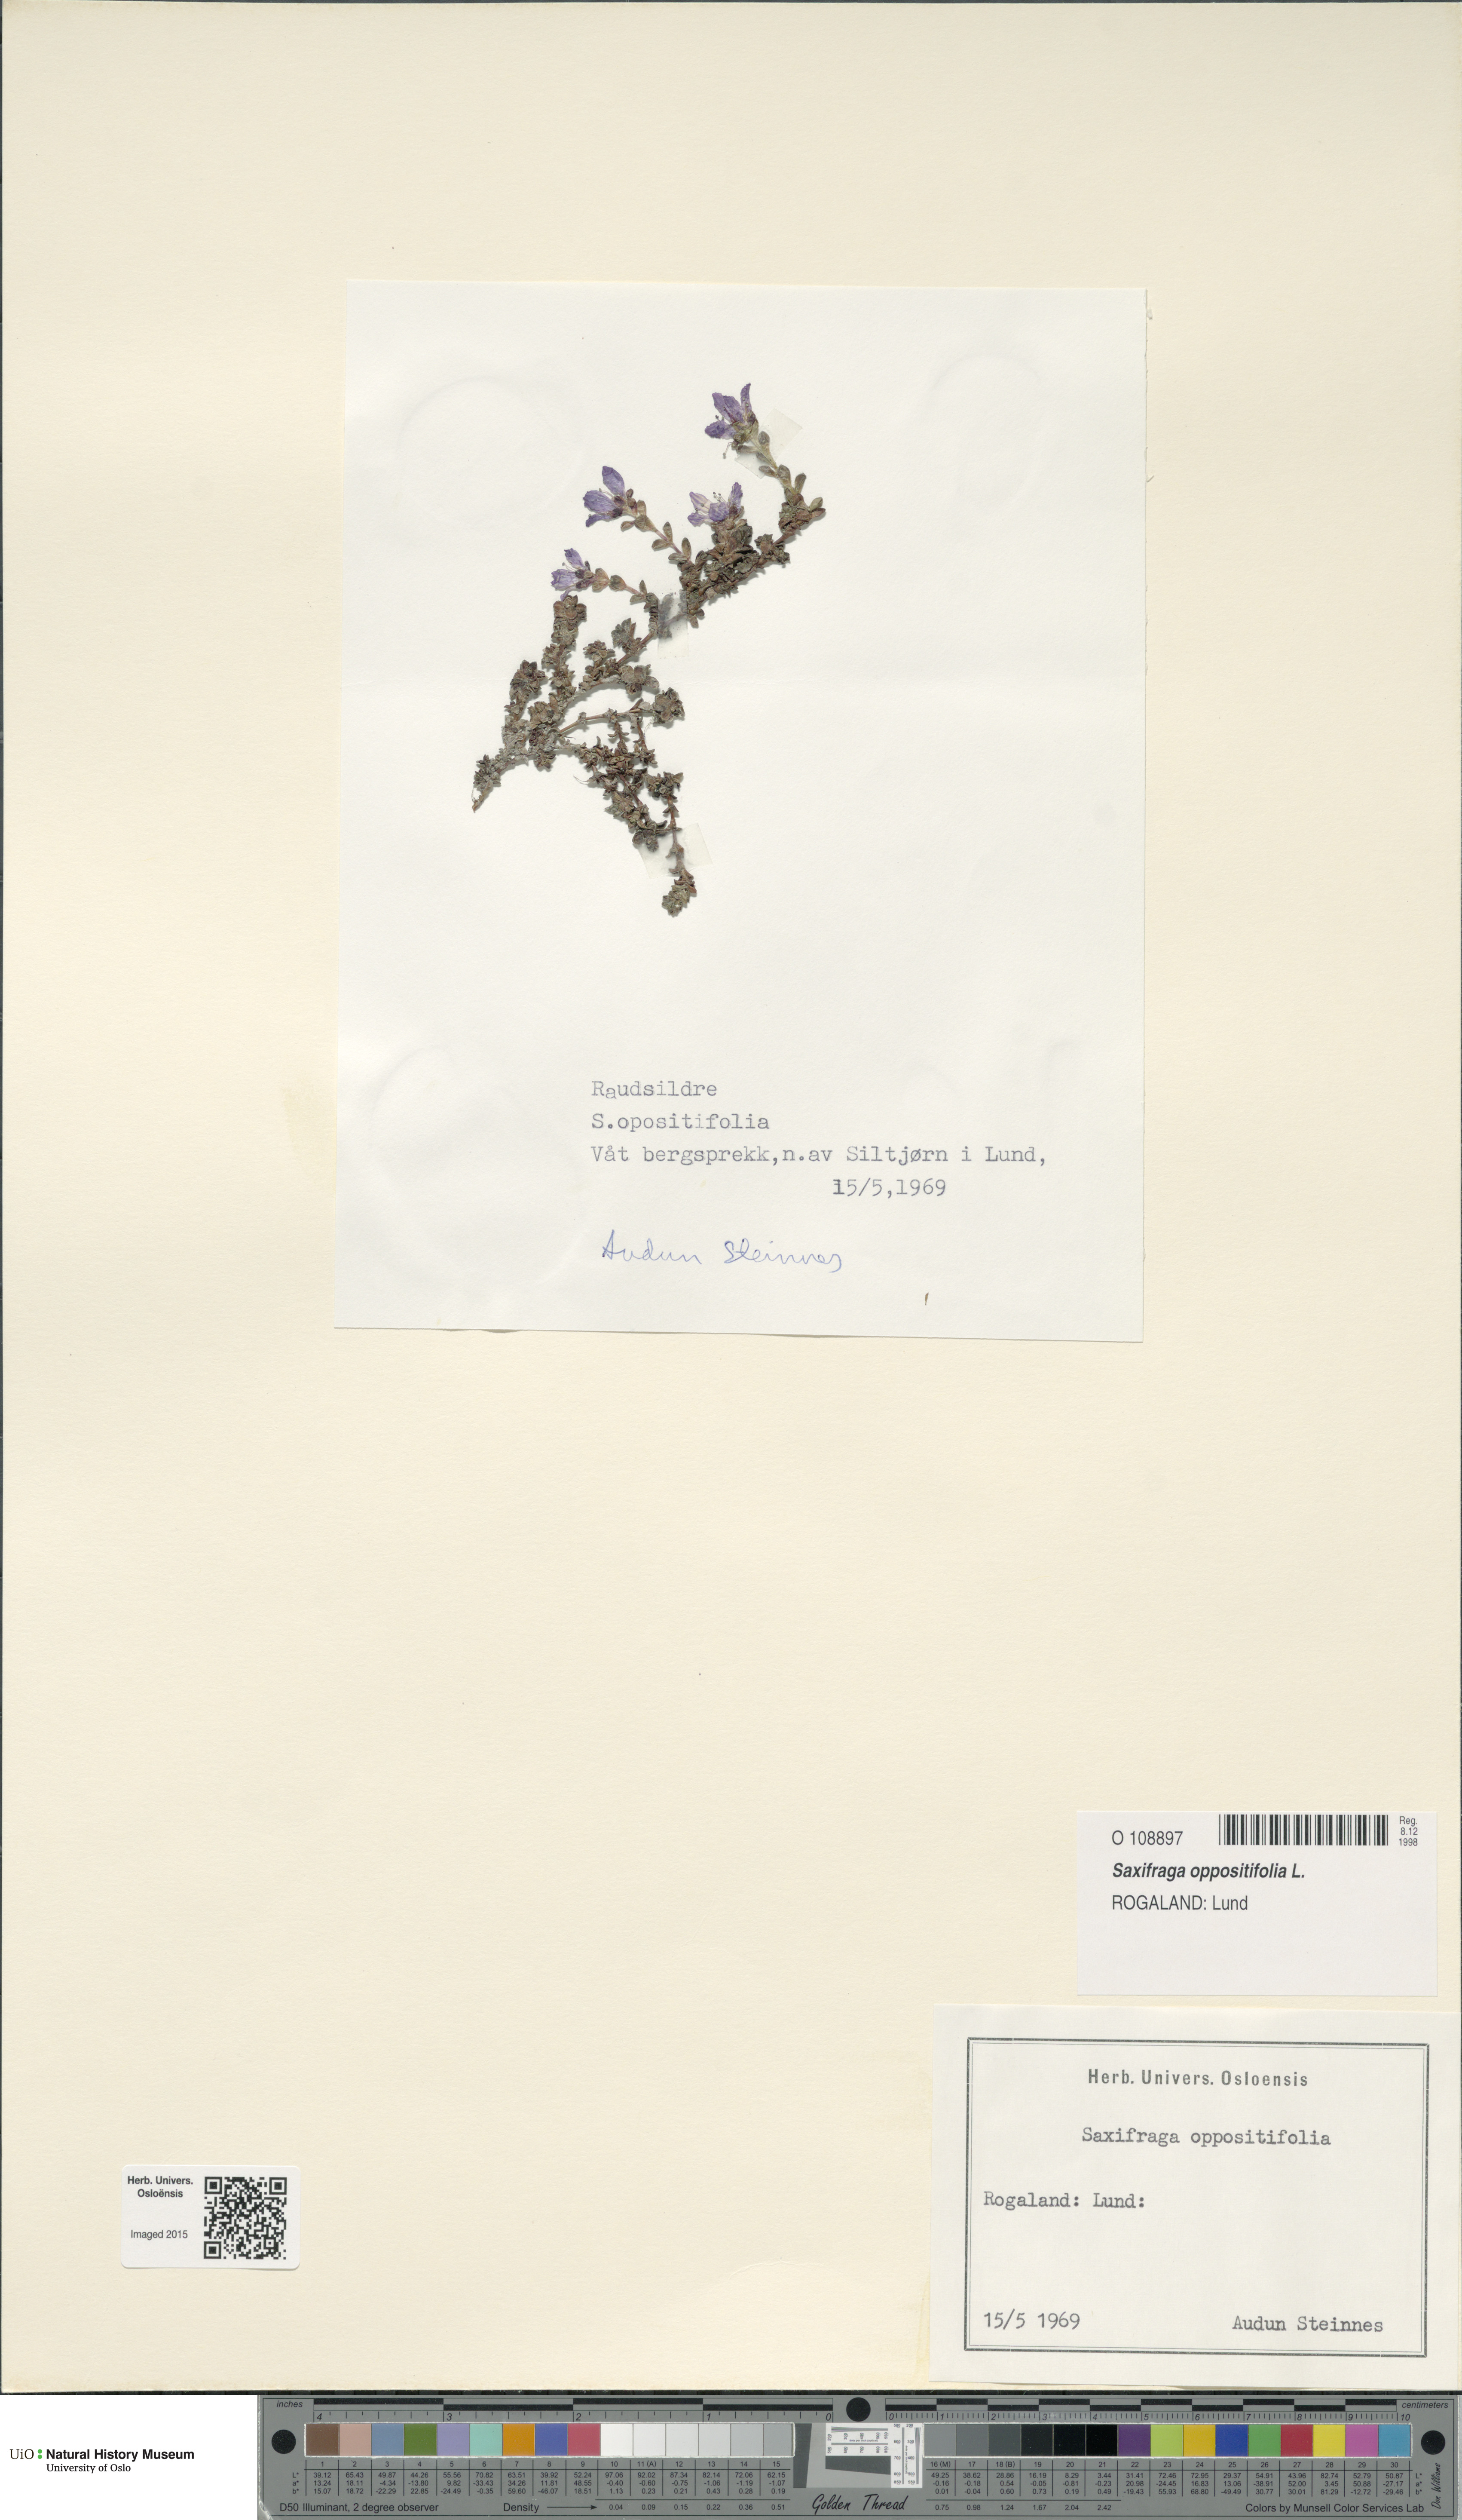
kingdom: Plantae
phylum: Tracheophyta
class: Magnoliopsida
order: Saxifragales
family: Saxifragaceae
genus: Saxifraga
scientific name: Saxifraga oppositifolia
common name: Purple saxifrage
